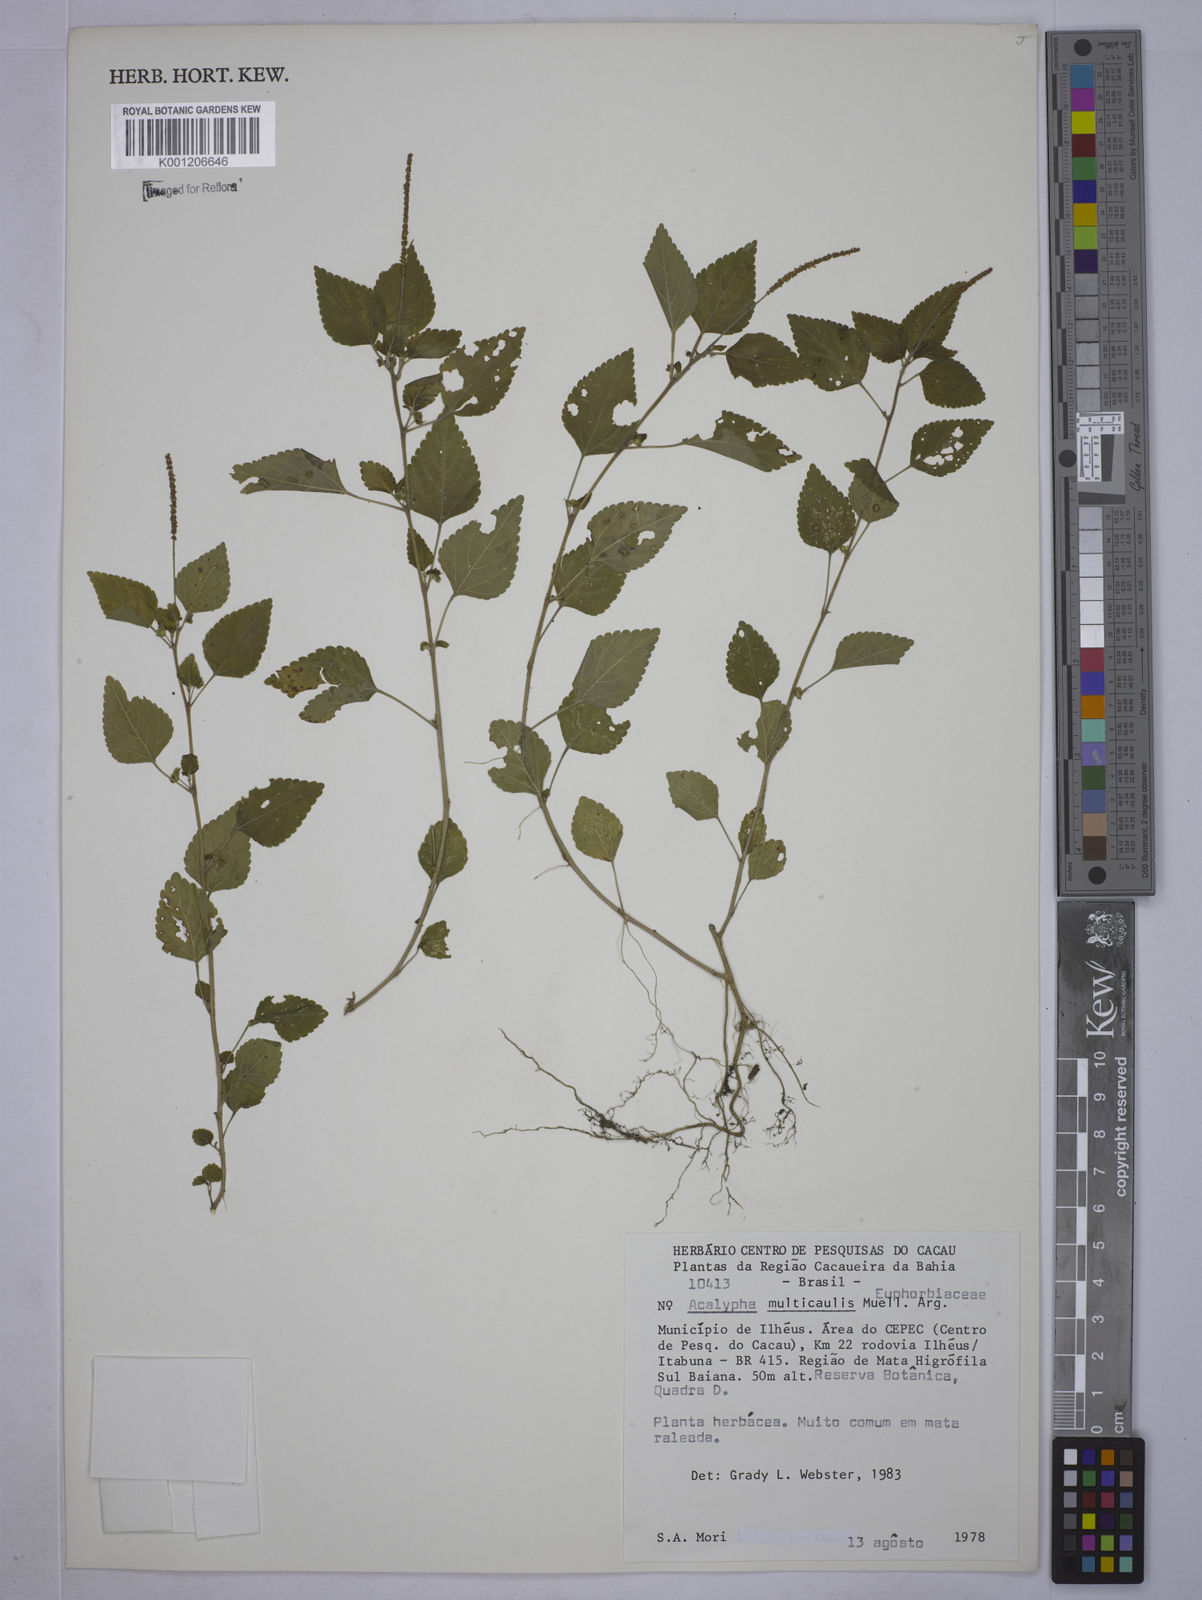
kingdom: Plantae
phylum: Tracheophyta
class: Magnoliopsida
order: Malpighiales
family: Euphorbiaceae
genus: Acalypha
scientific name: Acalypha
